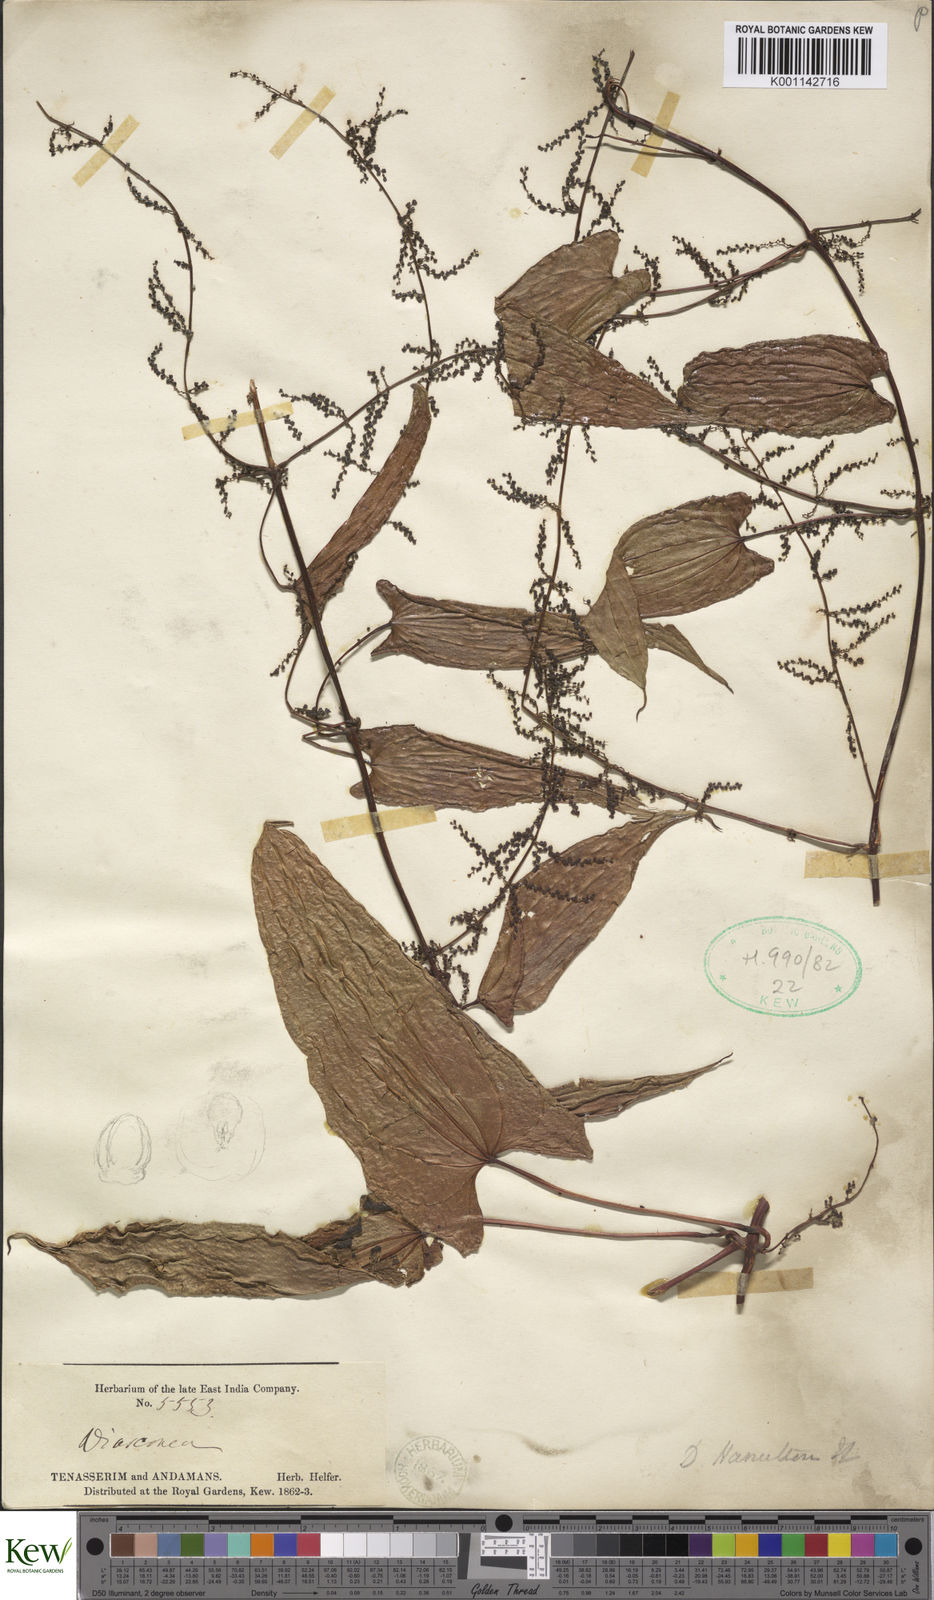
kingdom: Plantae
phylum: Tracheophyta
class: Liliopsida
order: Dioscoreales
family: Dioscoreaceae
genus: Dioscorea
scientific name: Dioscorea hamiltonii
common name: Mountain yam
